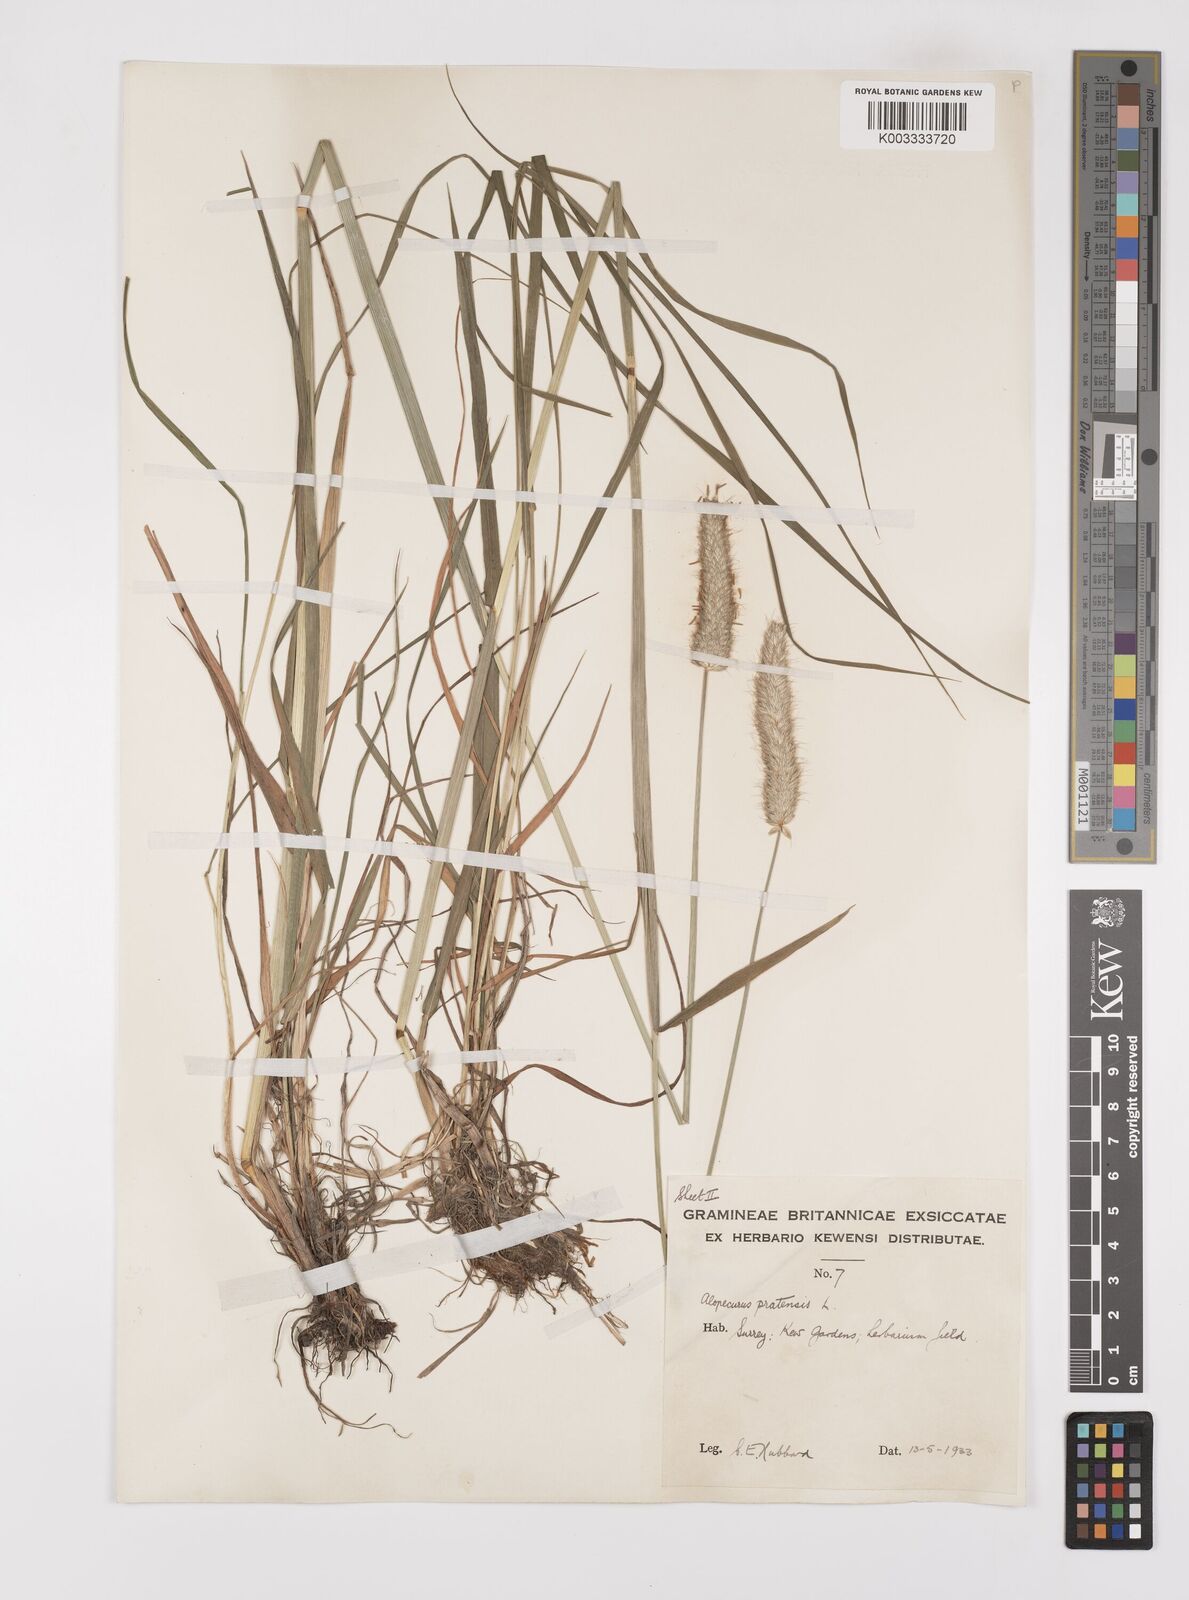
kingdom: Plantae
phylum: Tracheophyta
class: Liliopsida
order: Poales
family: Poaceae
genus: Alopecurus
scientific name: Alopecurus pratensis
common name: Meadow foxtail
